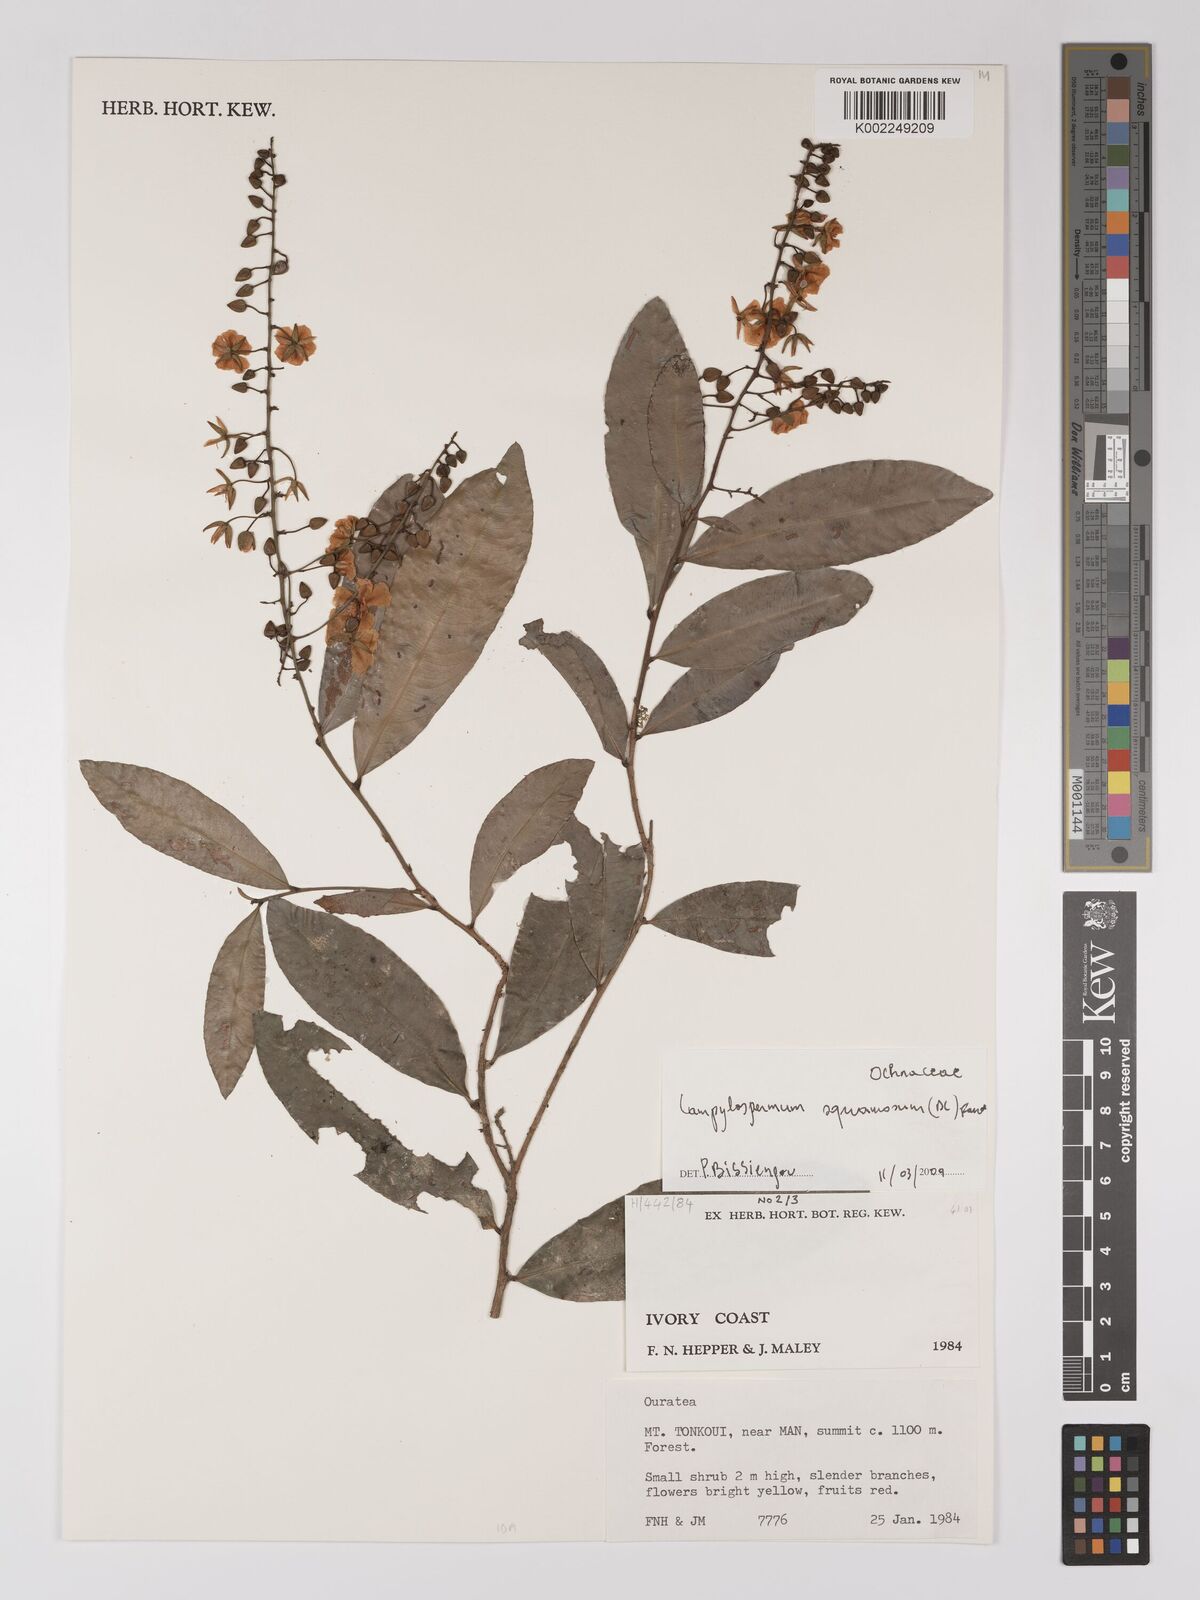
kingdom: Plantae
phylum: Tracheophyta
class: Magnoliopsida
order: Malpighiales
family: Ochnaceae
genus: Campylospermum
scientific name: Campylospermum squamosum
